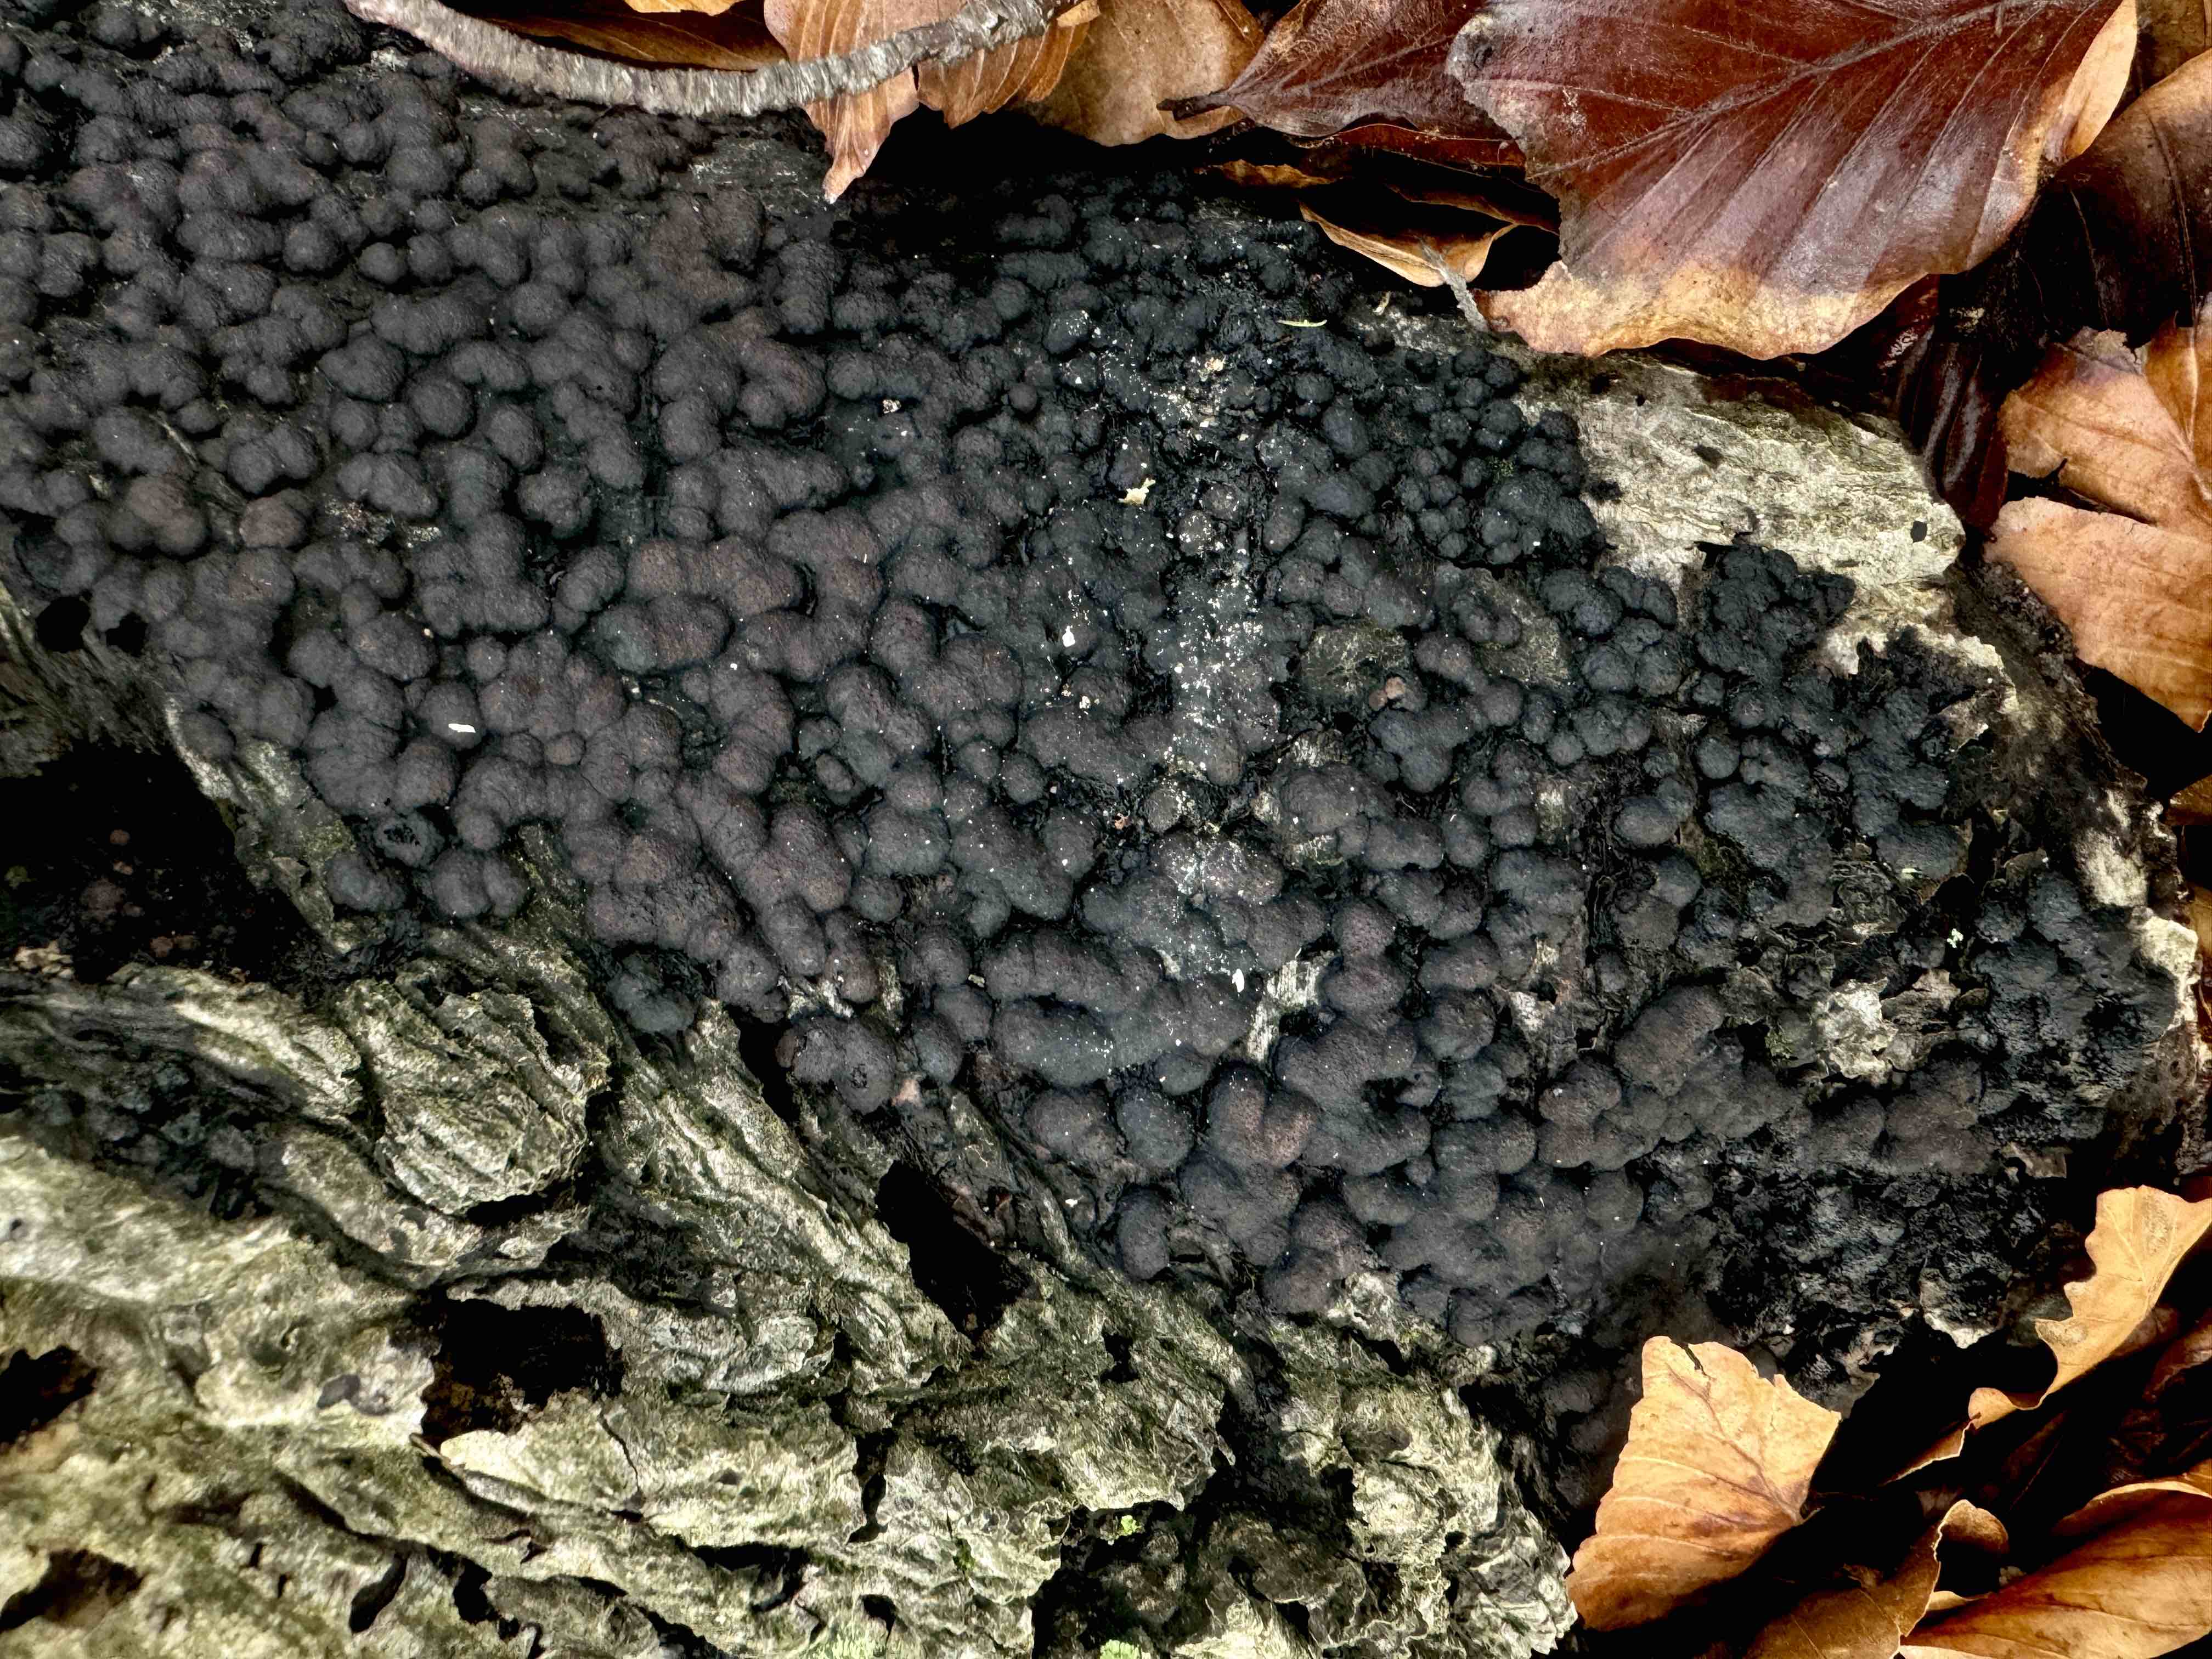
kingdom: Fungi
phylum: Ascomycota
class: Sordariomycetes
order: Xylariales
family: Hypoxylaceae
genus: Jackrogersella
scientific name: Jackrogersella cohaerens
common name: sammenflydende kulbær
